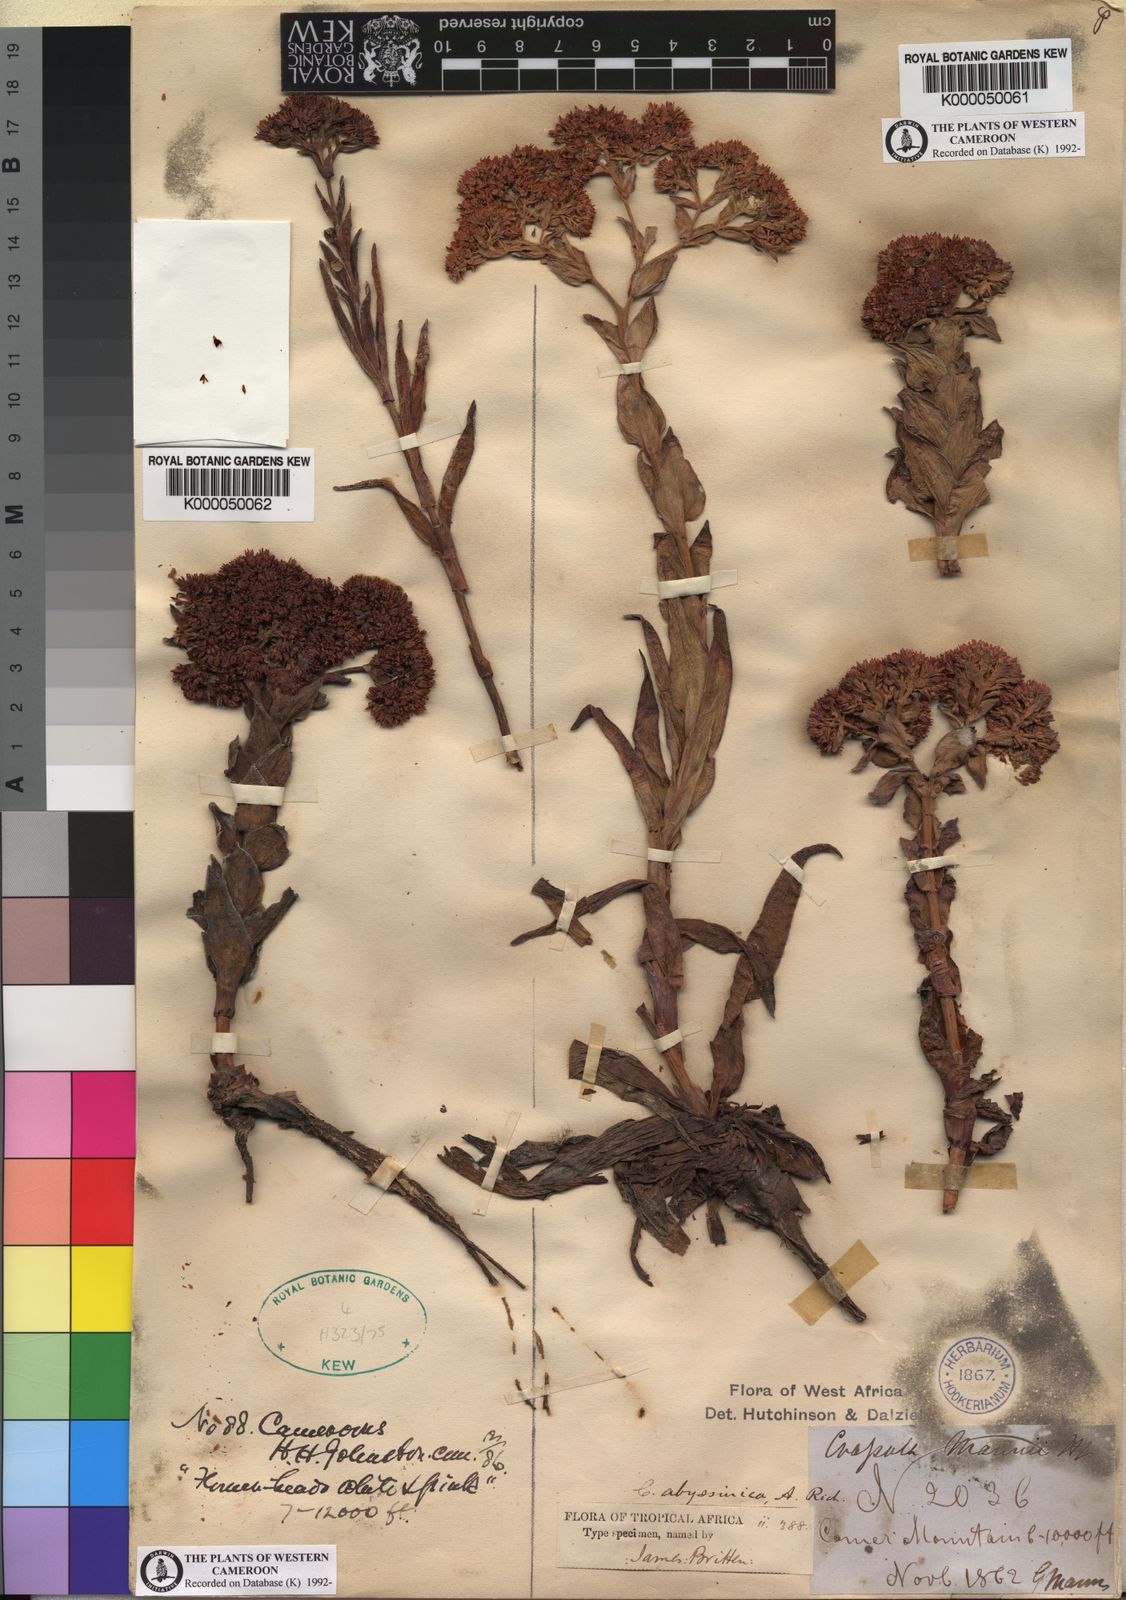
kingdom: Plantae
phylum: Tracheophyta
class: Magnoliopsida
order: Saxifragales
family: Crassulaceae
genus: Crassula
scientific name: Crassula vaginata
